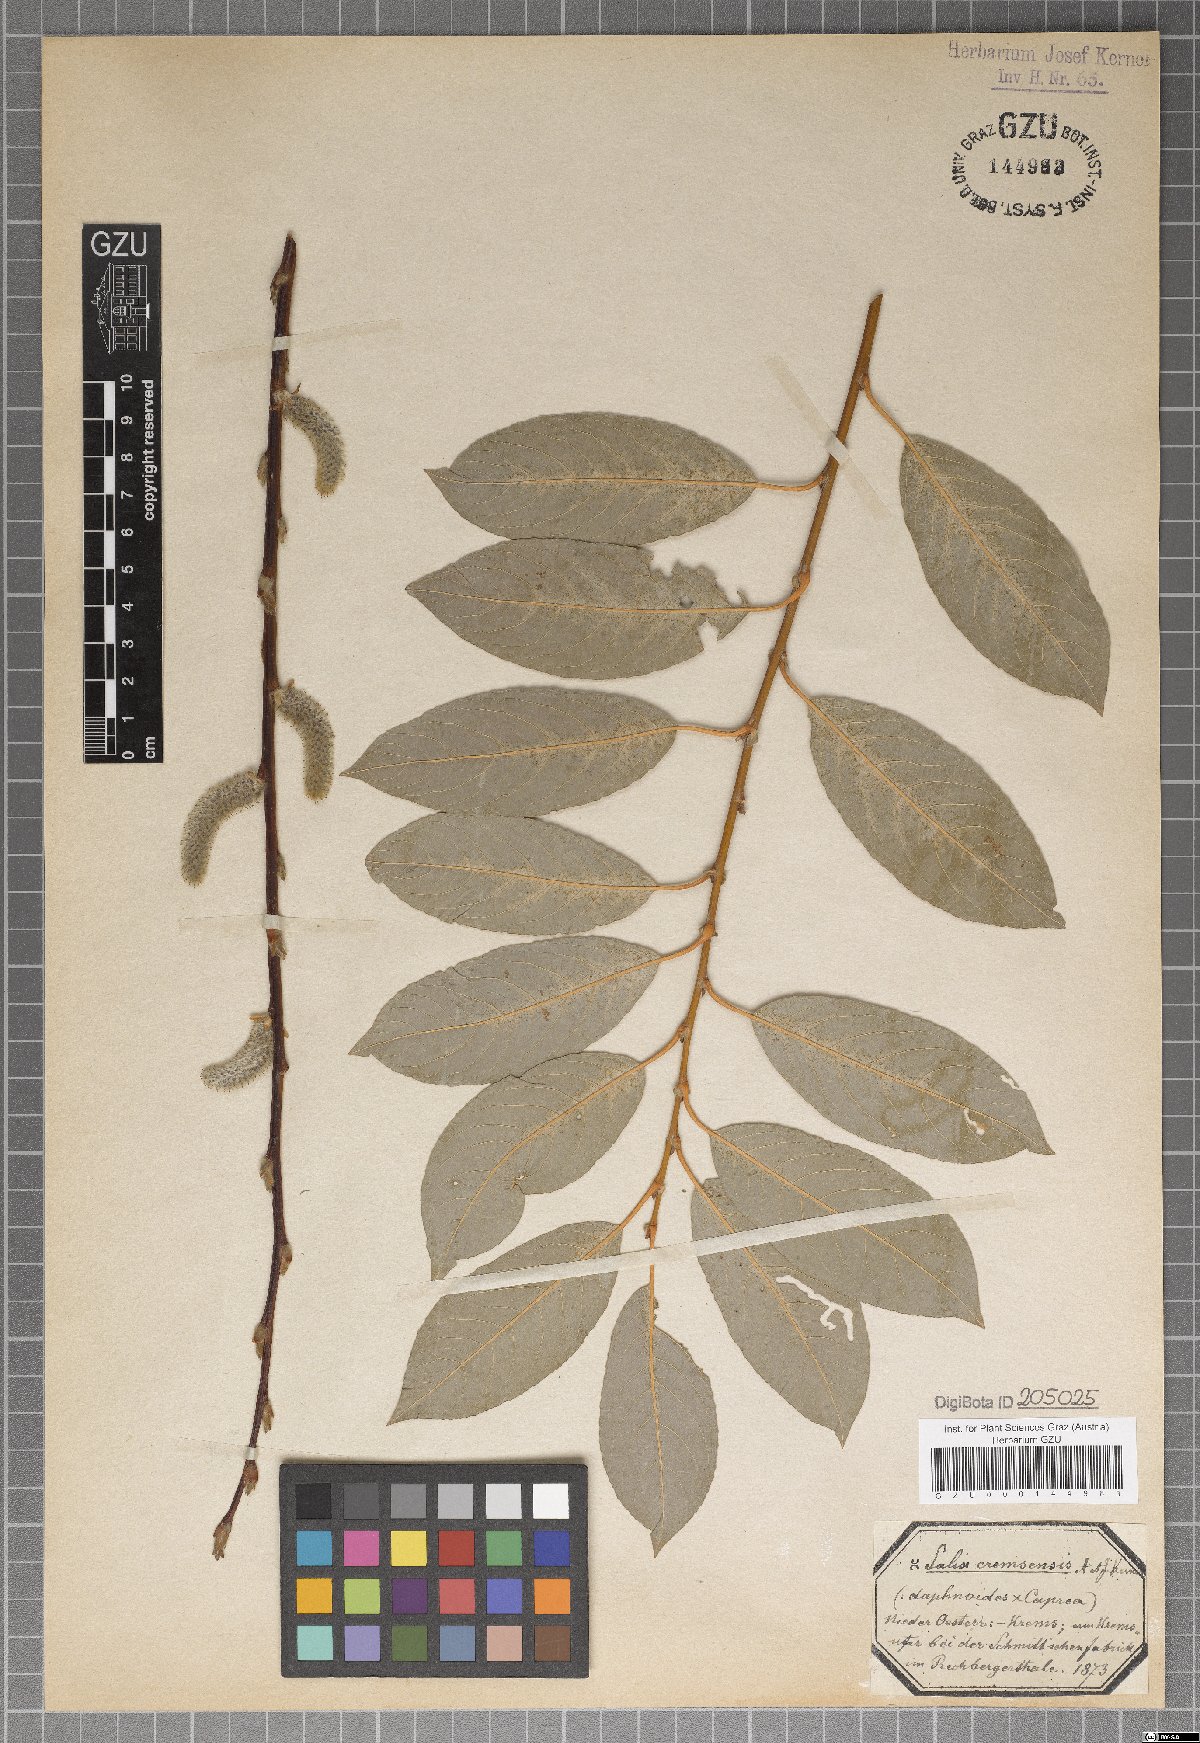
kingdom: Plantae
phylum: Tracheophyta
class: Magnoliopsida
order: Malpighiales
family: Salicaceae
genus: Salix
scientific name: Salix erdingeri
